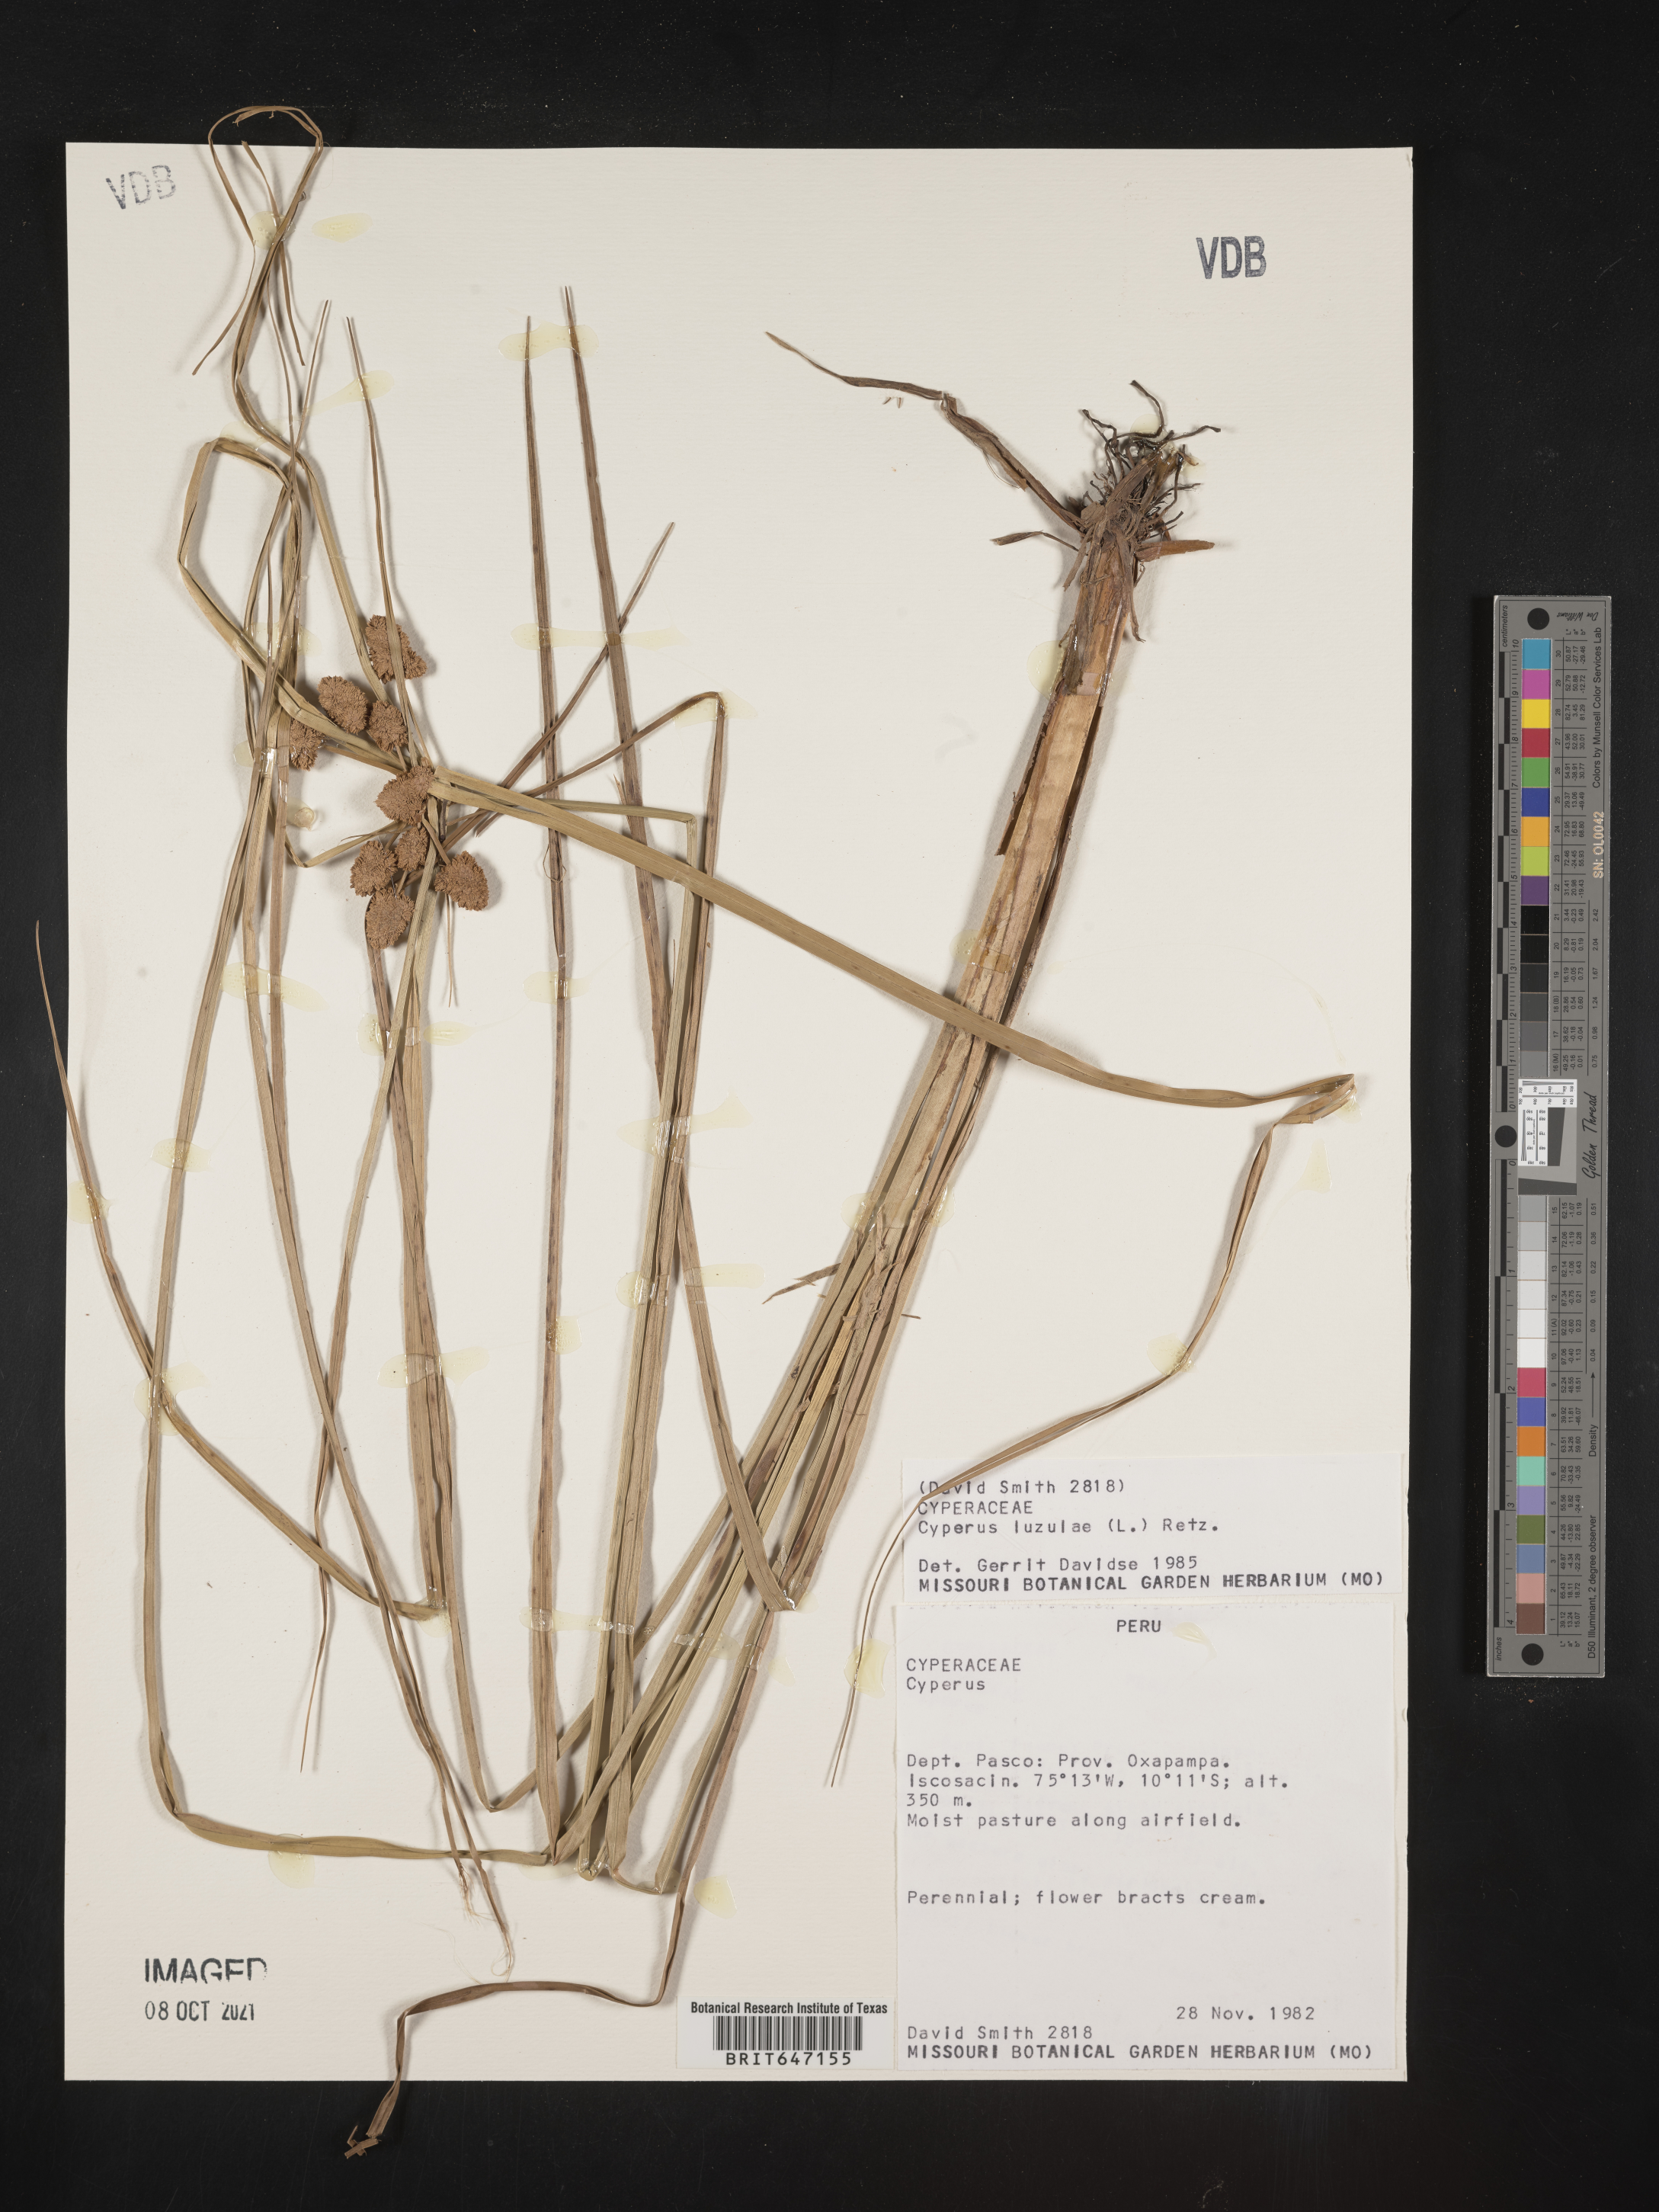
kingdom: Plantae
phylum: Tracheophyta
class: Liliopsida
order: Poales
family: Cyperaceae
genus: Cyperus
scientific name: Cyperus luzulae
